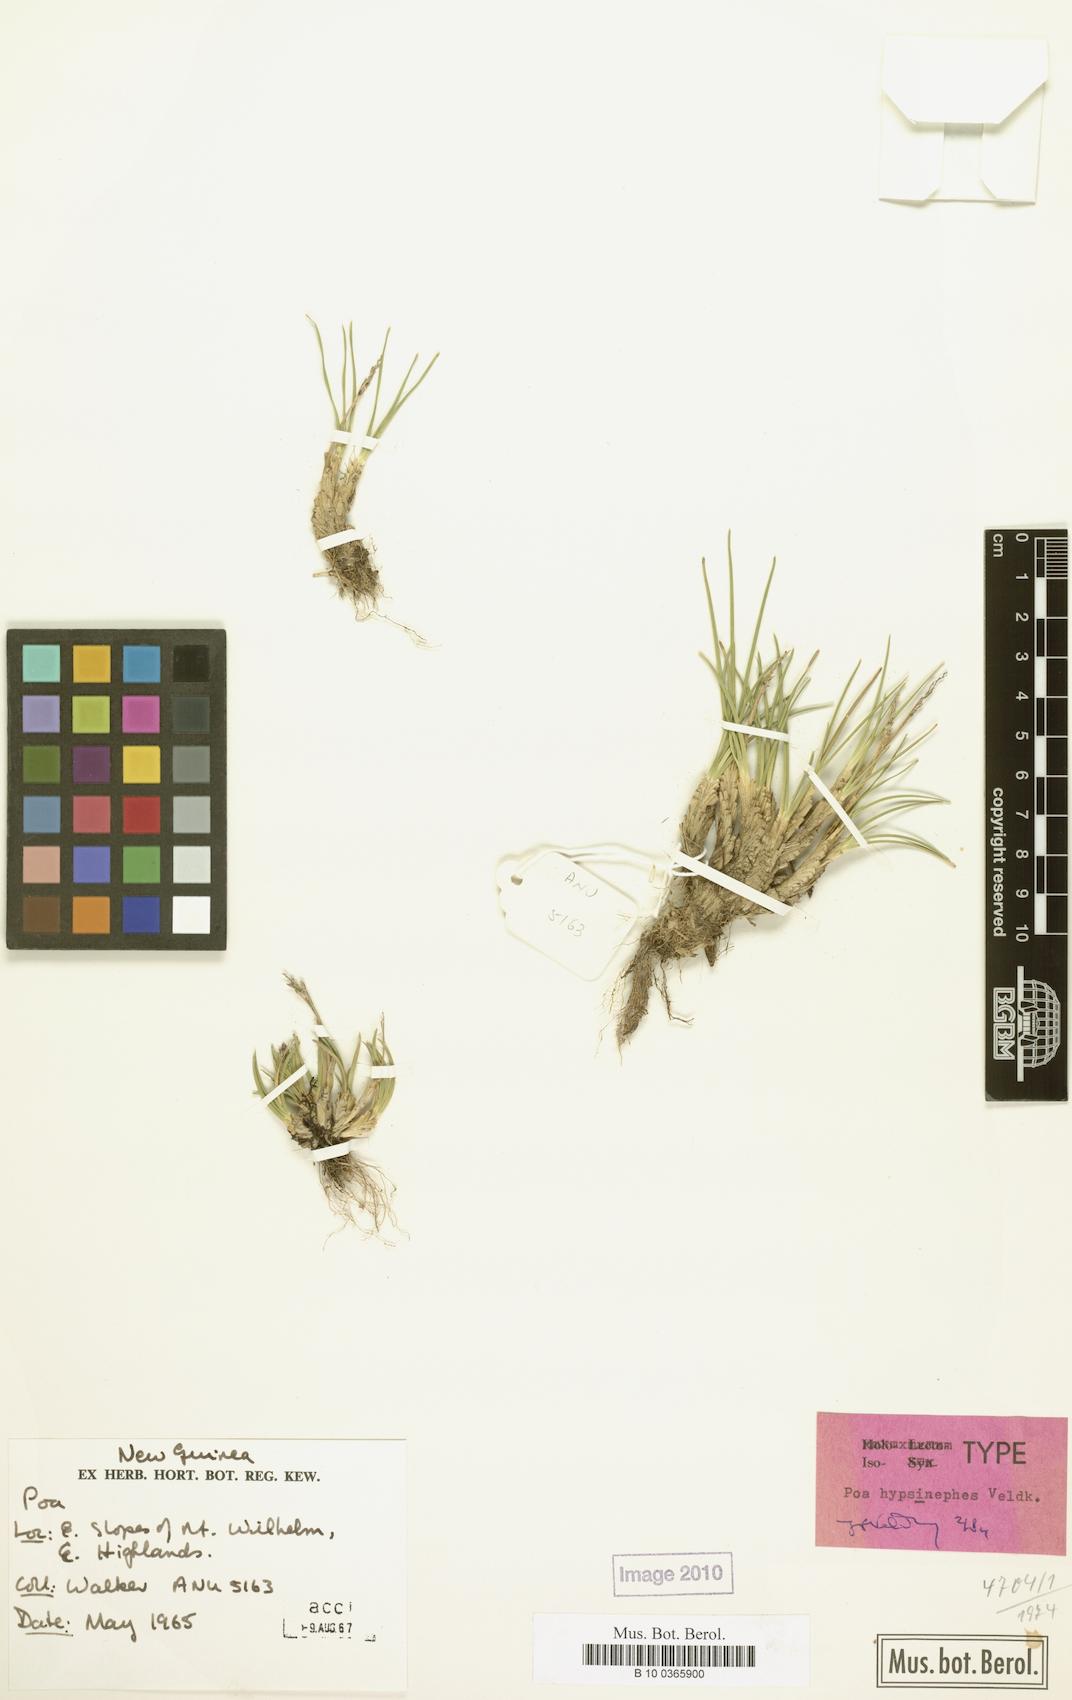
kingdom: Plantae
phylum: Tracheophyta
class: Liliopsida
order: Poales
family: Poaceae
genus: Poa
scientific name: Poa hypsinephes
